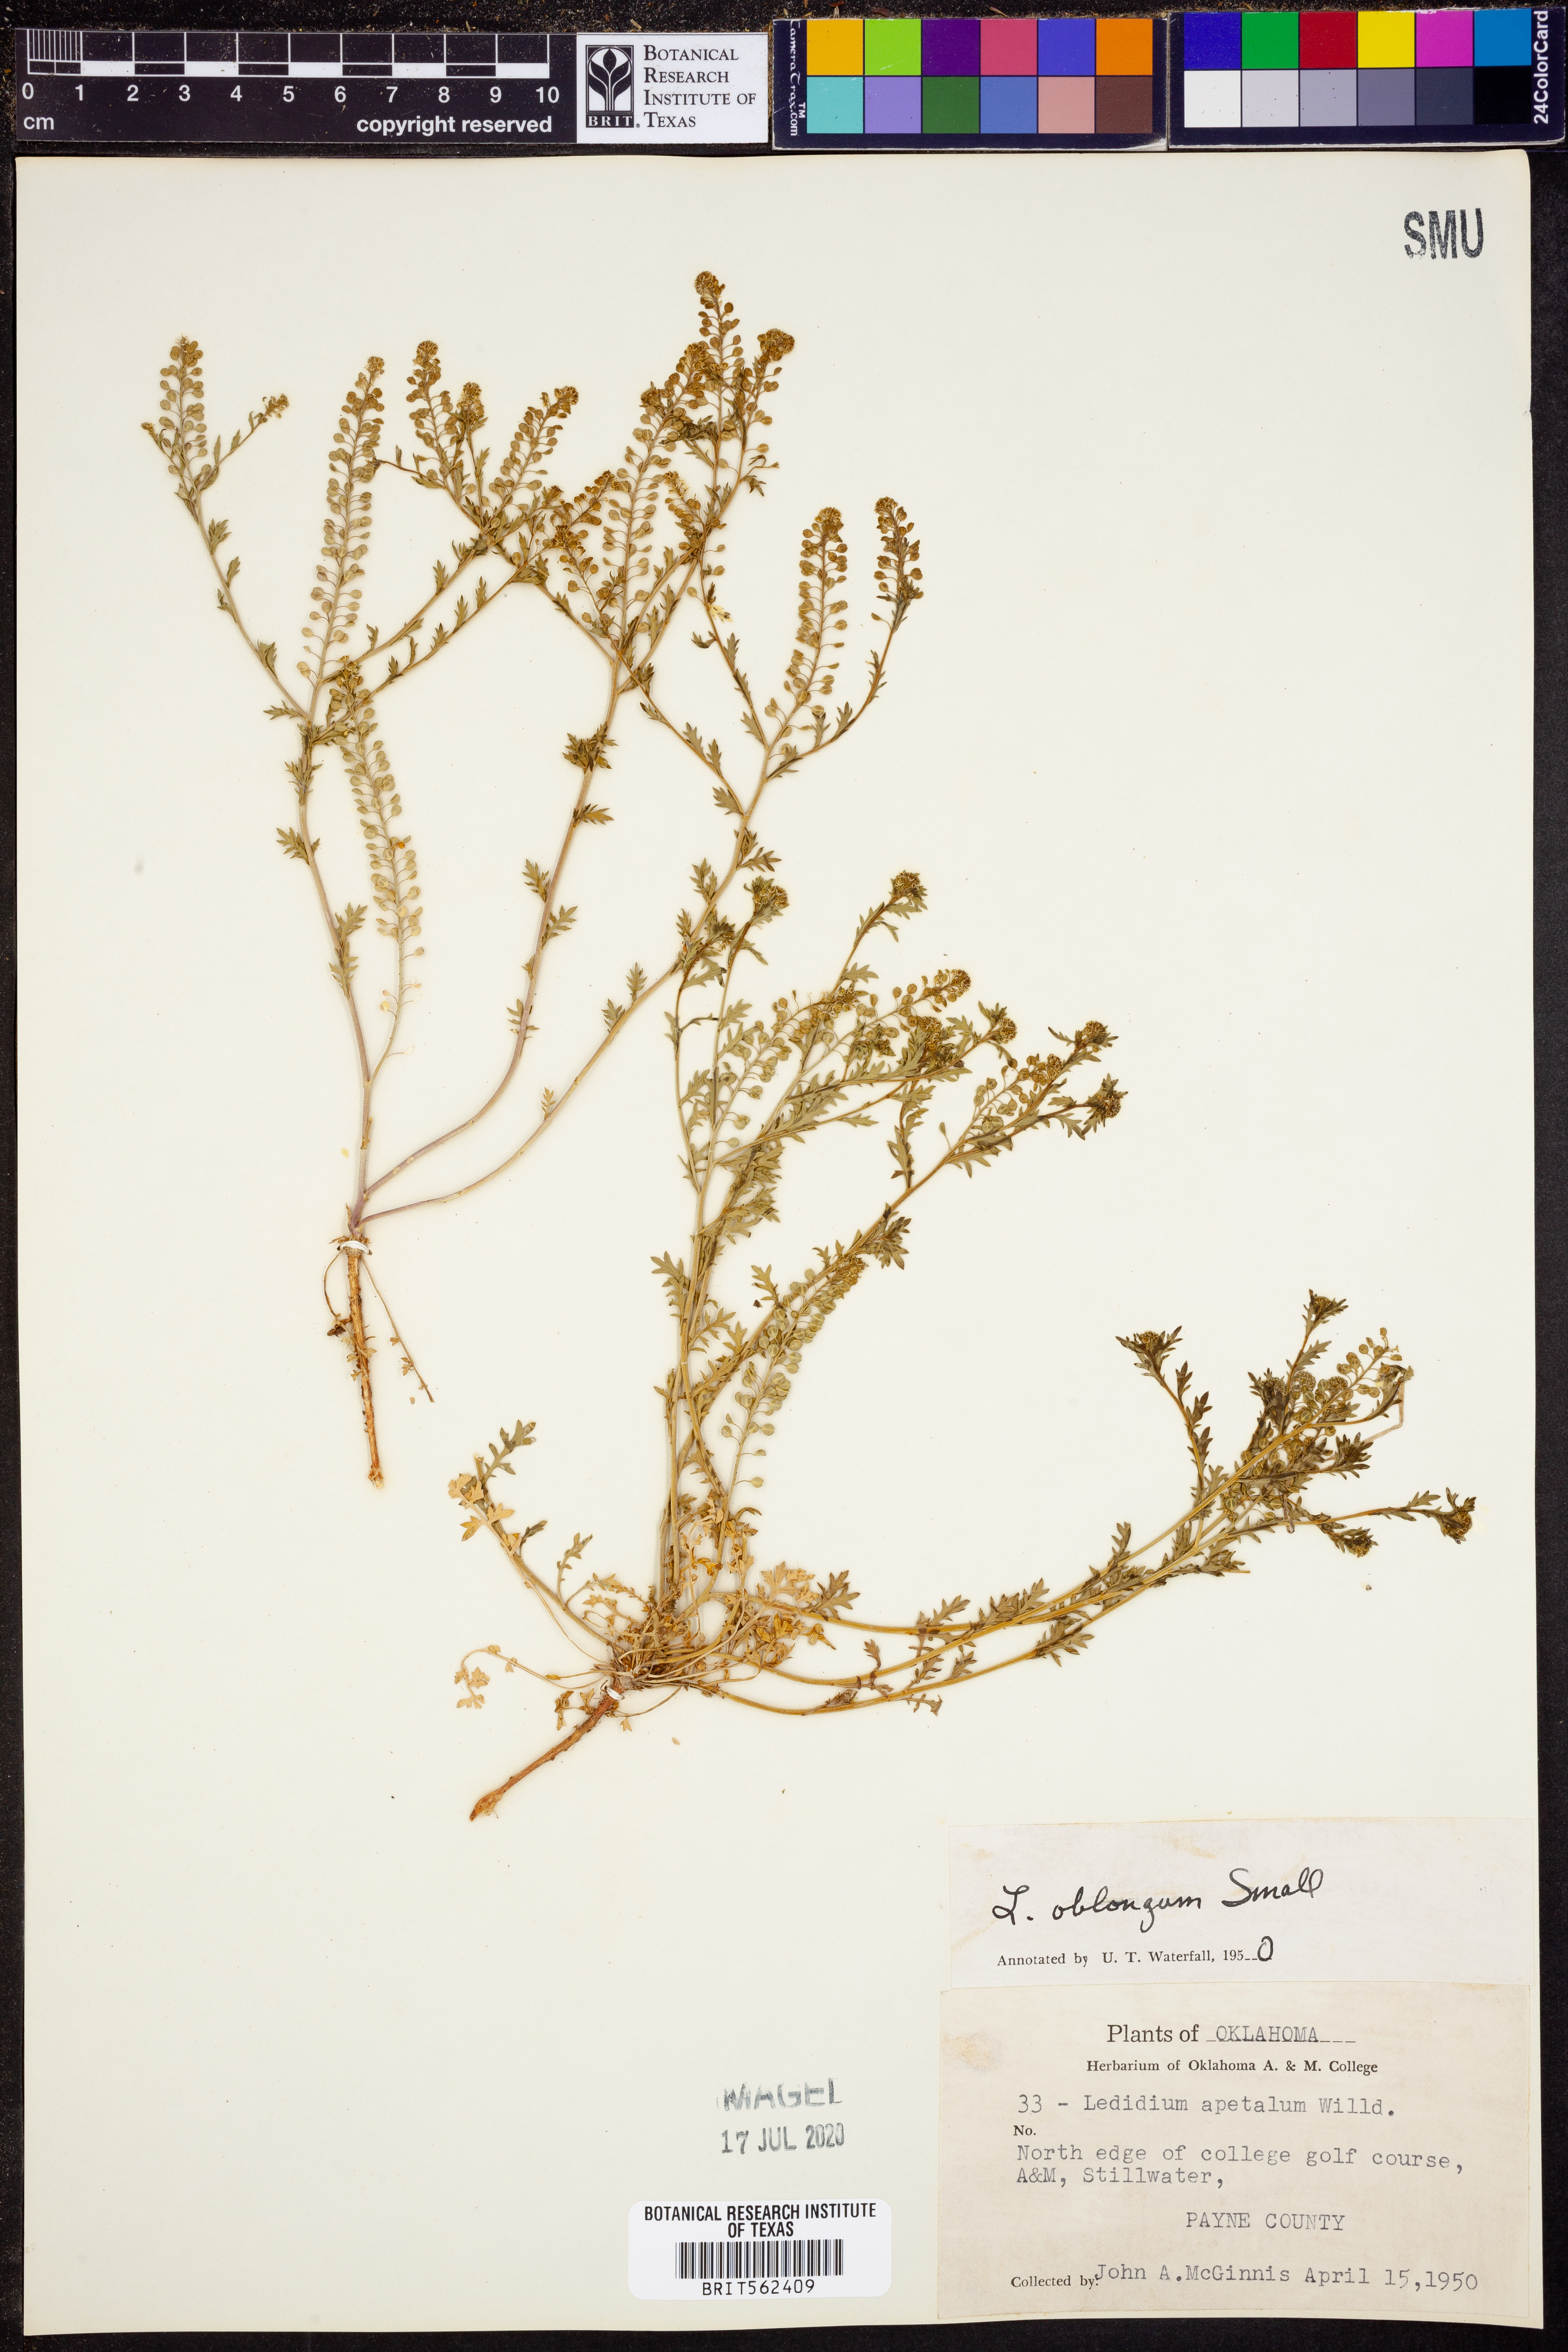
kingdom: Plantae
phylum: Tracheophyta
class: Magnoliopsida
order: Brassicales
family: Brassicaceae
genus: Lepidium
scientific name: Lepidium oblongum
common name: Veiny pepperweed
